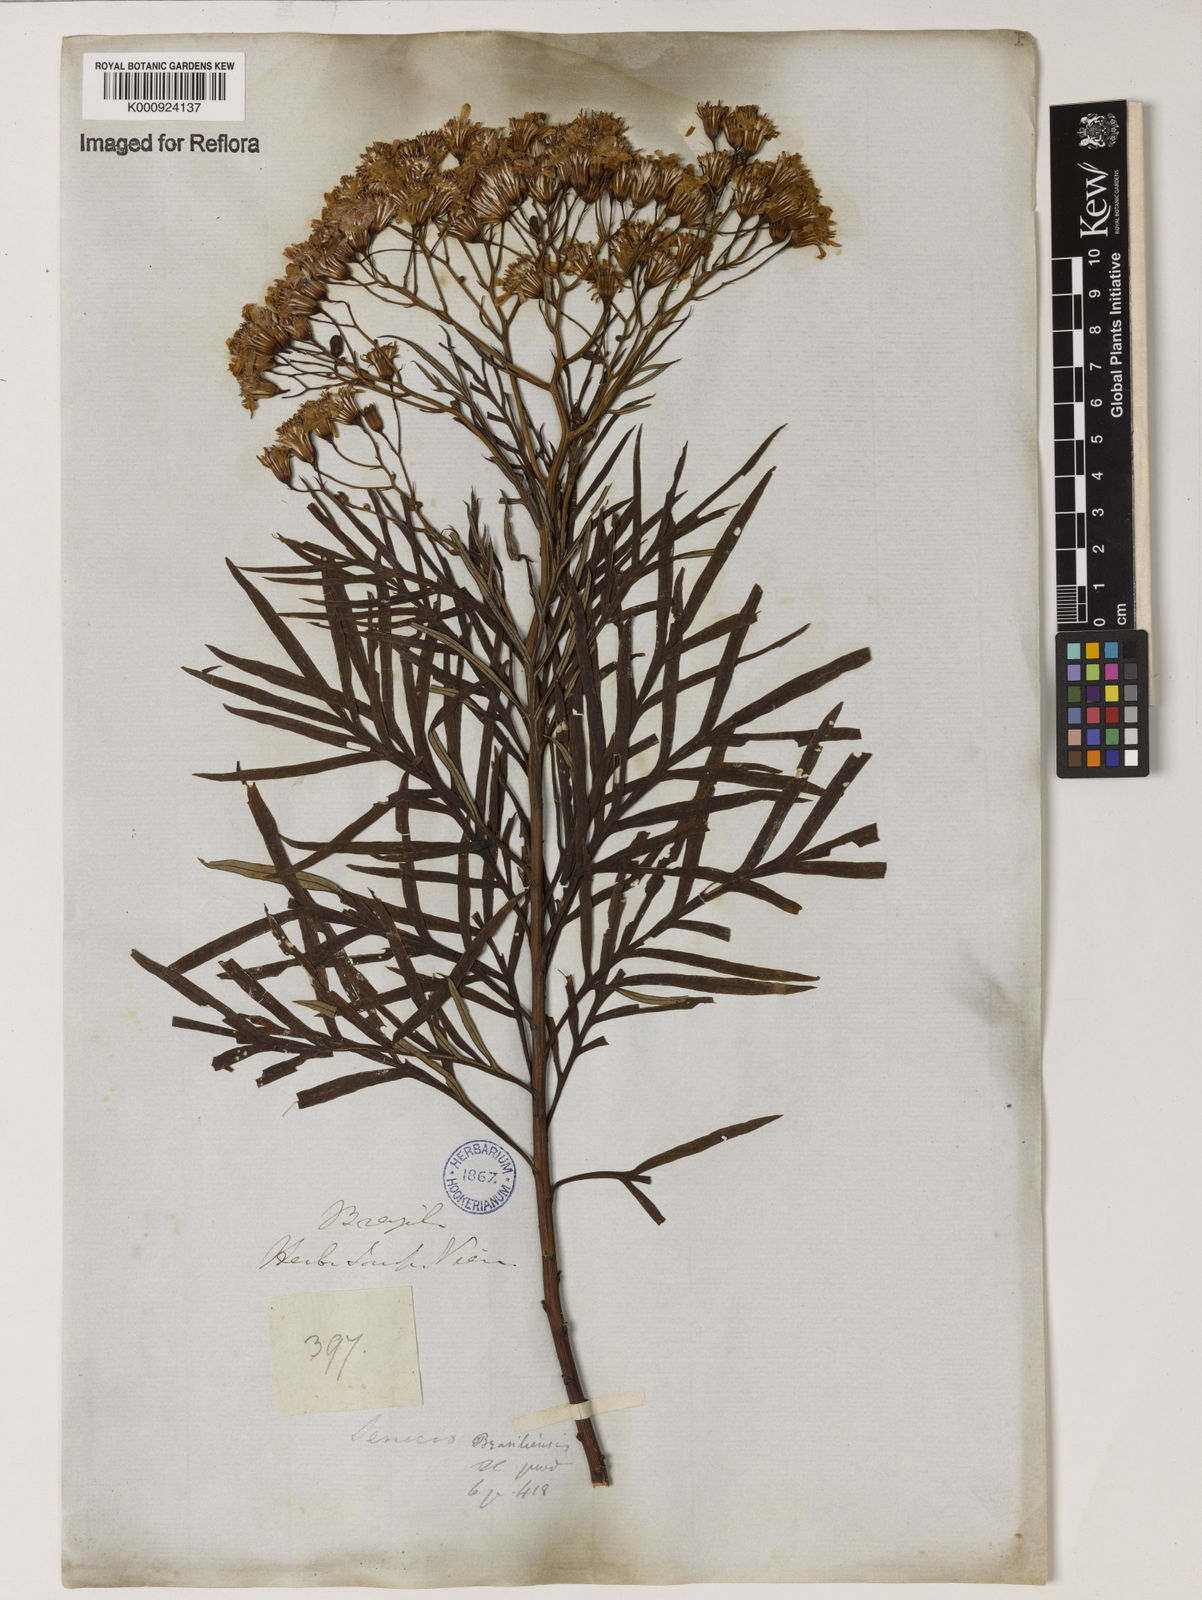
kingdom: Plantae
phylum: Tracheophyta
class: Magnoliopsida
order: Asterales
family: Asteraceae
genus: Senecio
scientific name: Senecio brasiliensis
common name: Hemp-leaf ragwort
